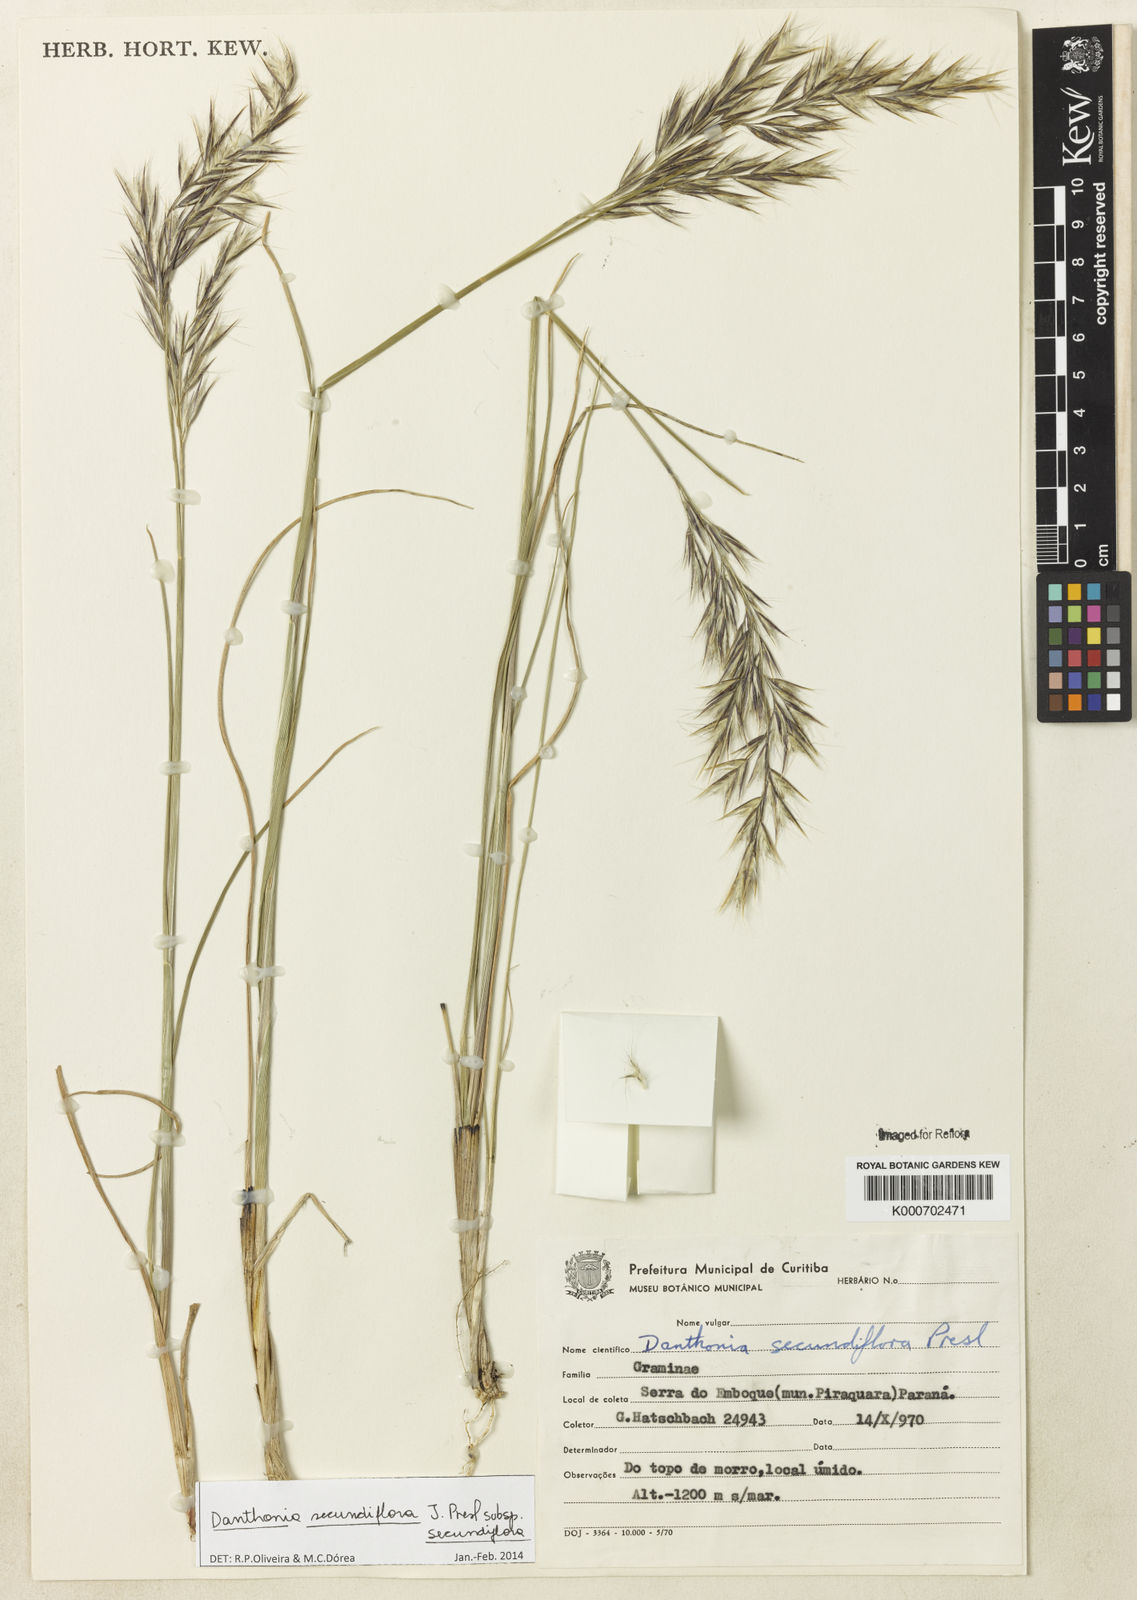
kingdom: Plantae
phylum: Tracheophyta
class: Liliopsida
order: Poales
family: Poaceae
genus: Danthonia
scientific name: Danthonia secundiflora
